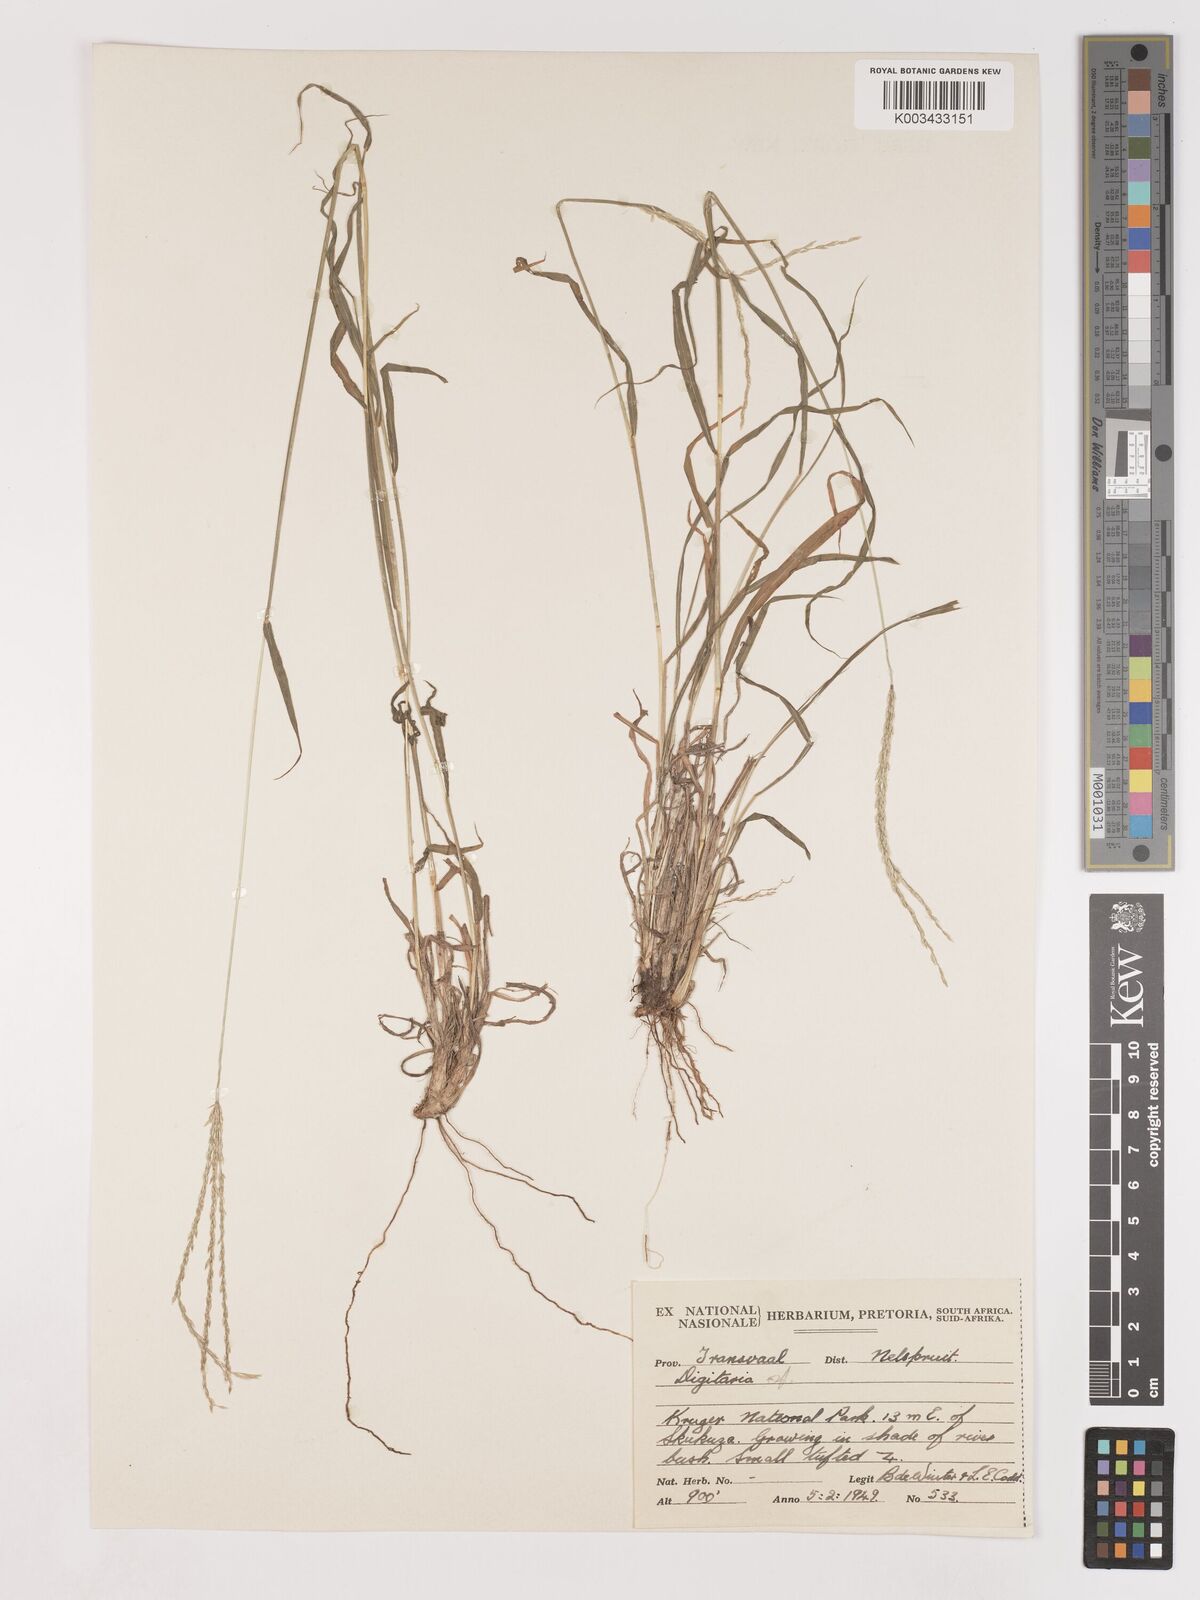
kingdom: Plantae
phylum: Tracheophyta
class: Liliopsida
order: Poales
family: Poaceae
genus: Digitaria
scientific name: Digitaria polyphylla
